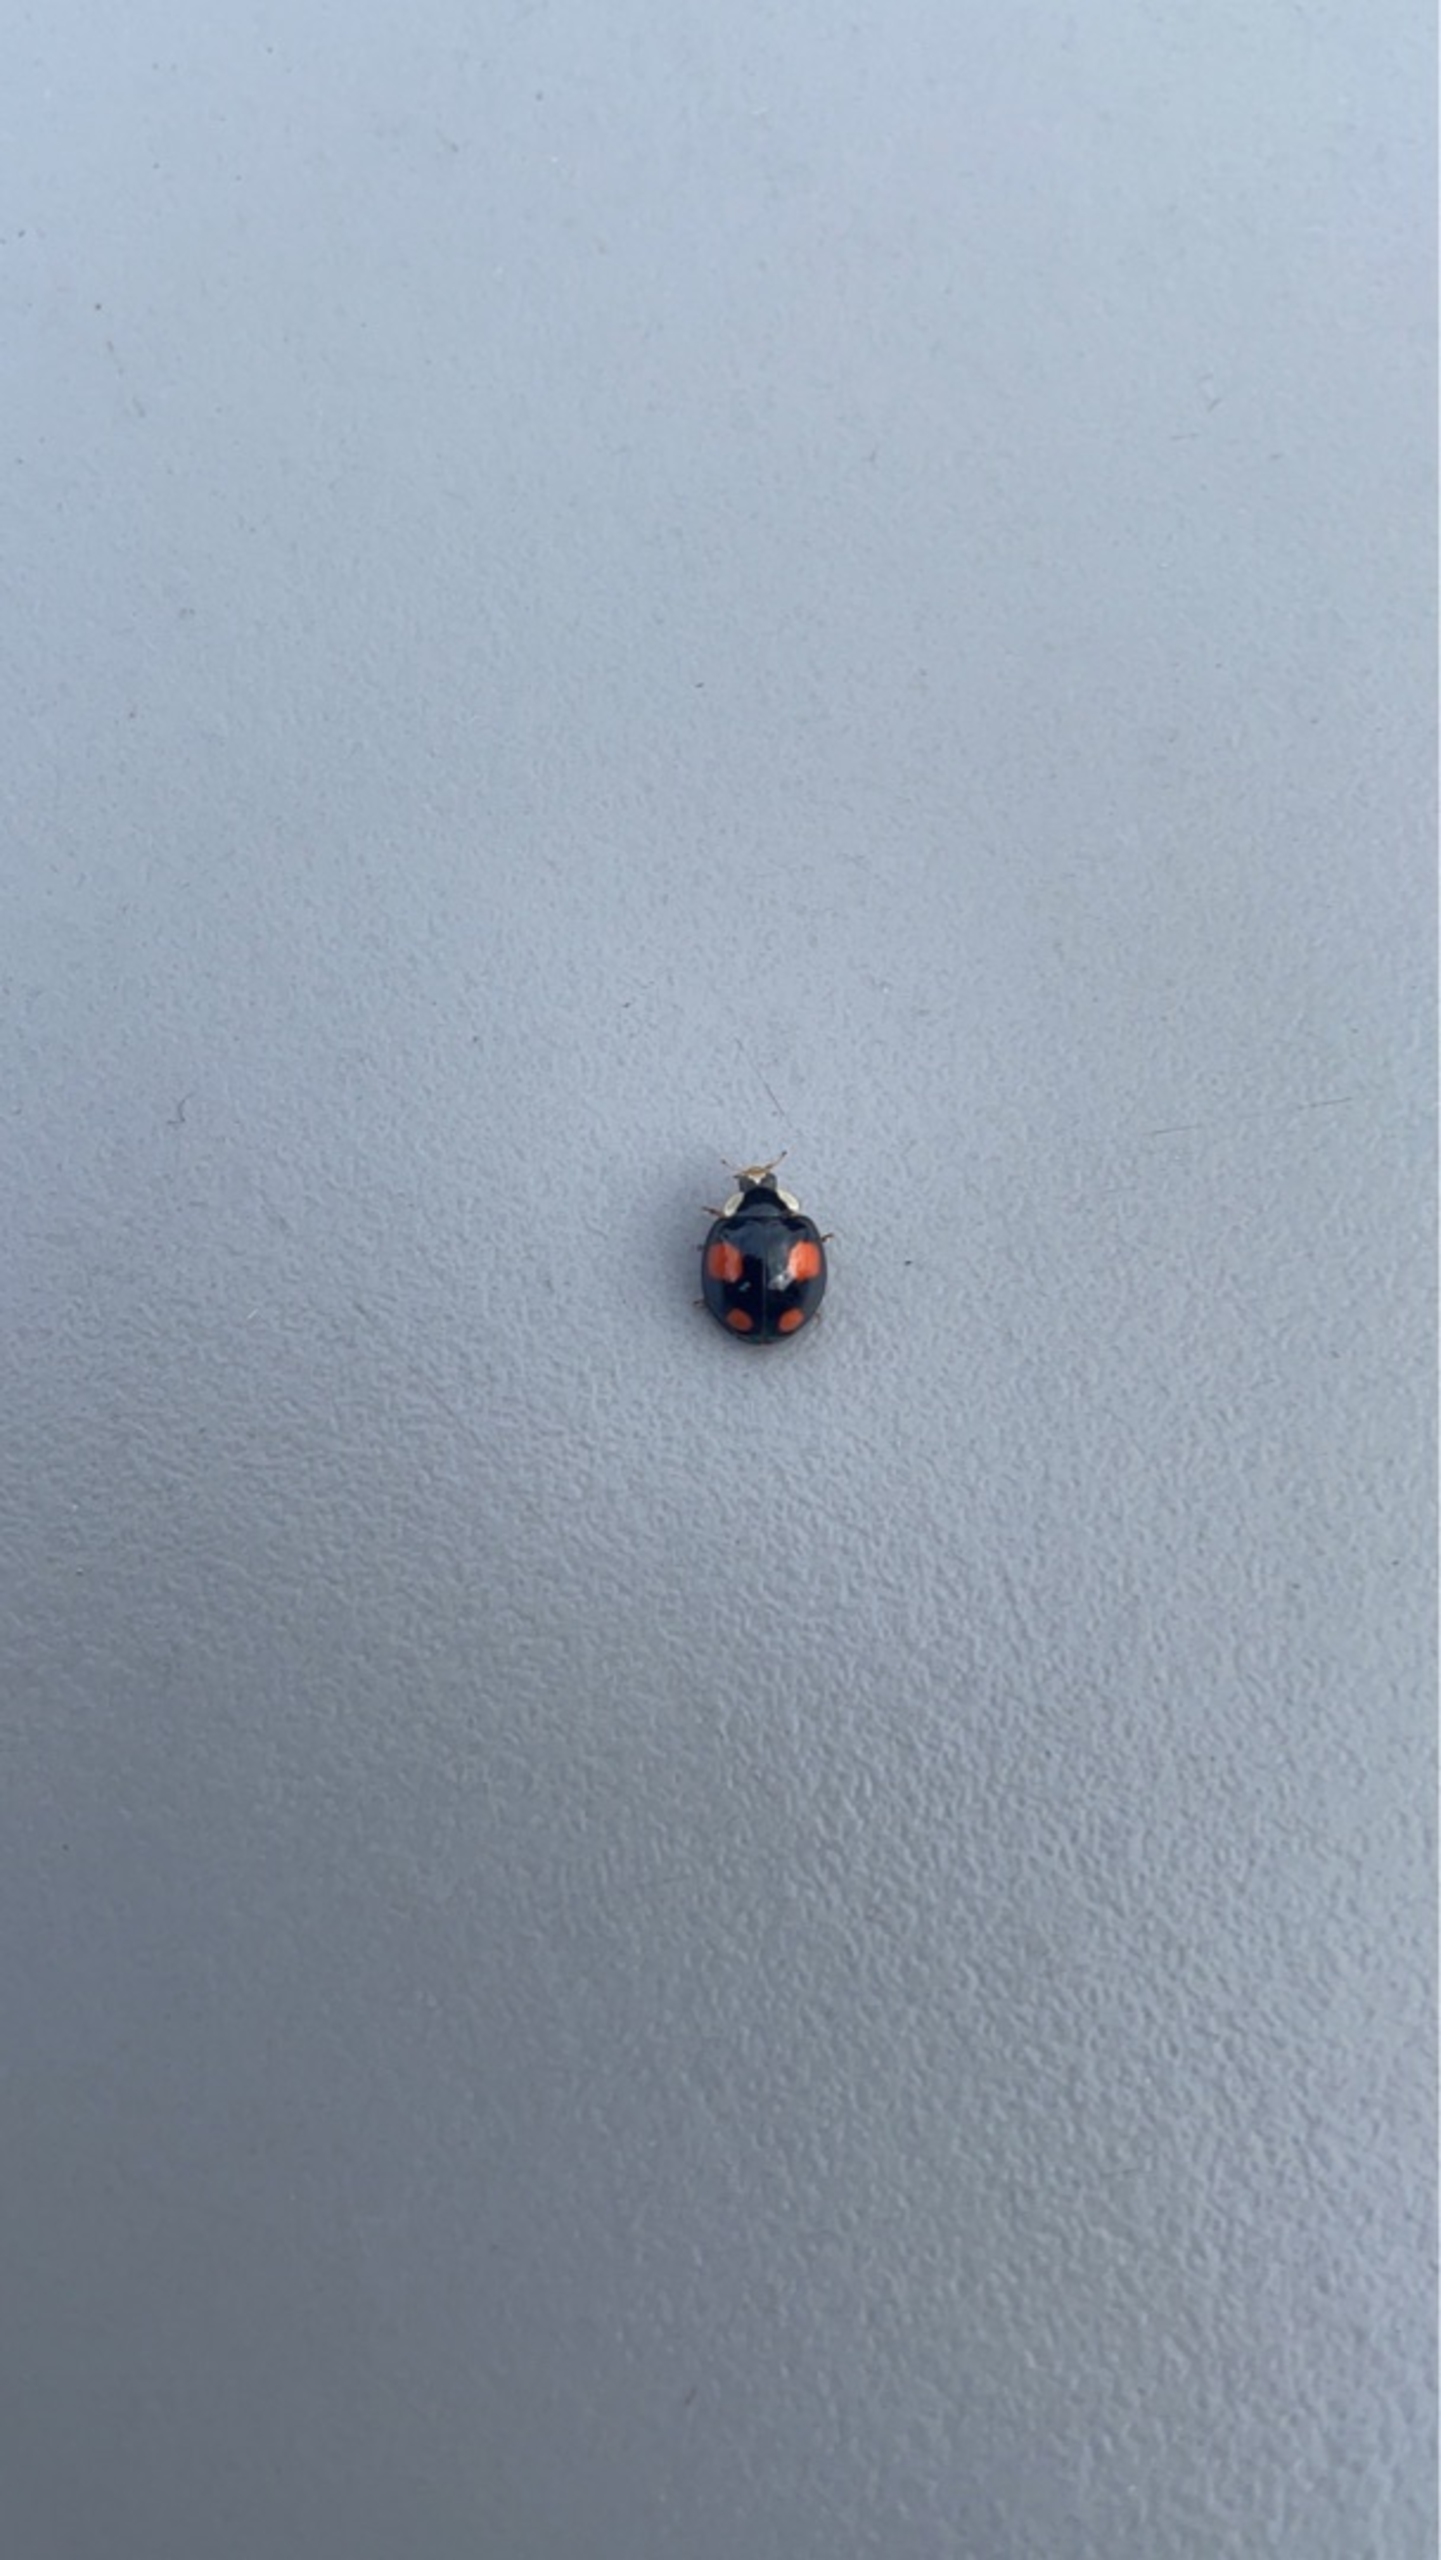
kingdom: Animalia
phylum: Arthropoda
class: Insecta
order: Coleoptera
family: Coccinellidae
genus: Harmonia
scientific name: Harmonia axyridis
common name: Harlekinmariehøne
